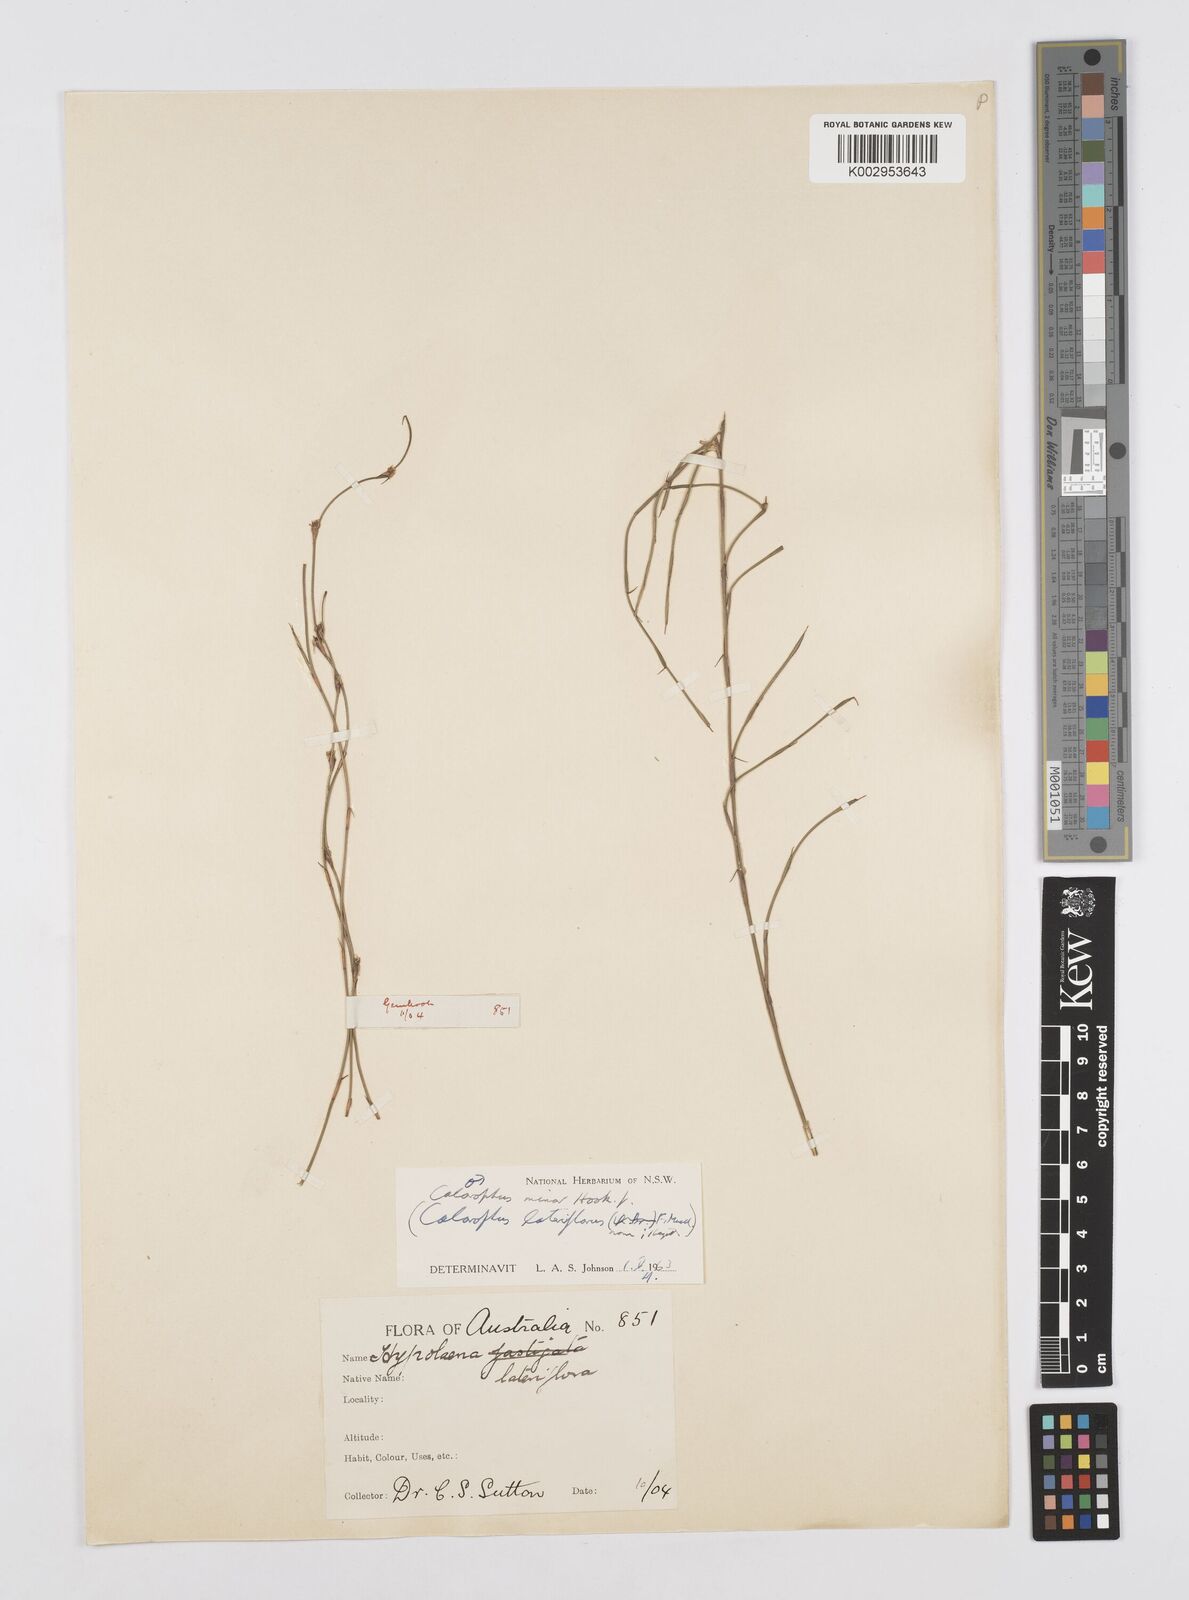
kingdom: Plantae
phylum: Tracheophyta
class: Liliopsida
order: Poales
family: Restionaceae
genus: Empodisma
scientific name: Empodisma minus
